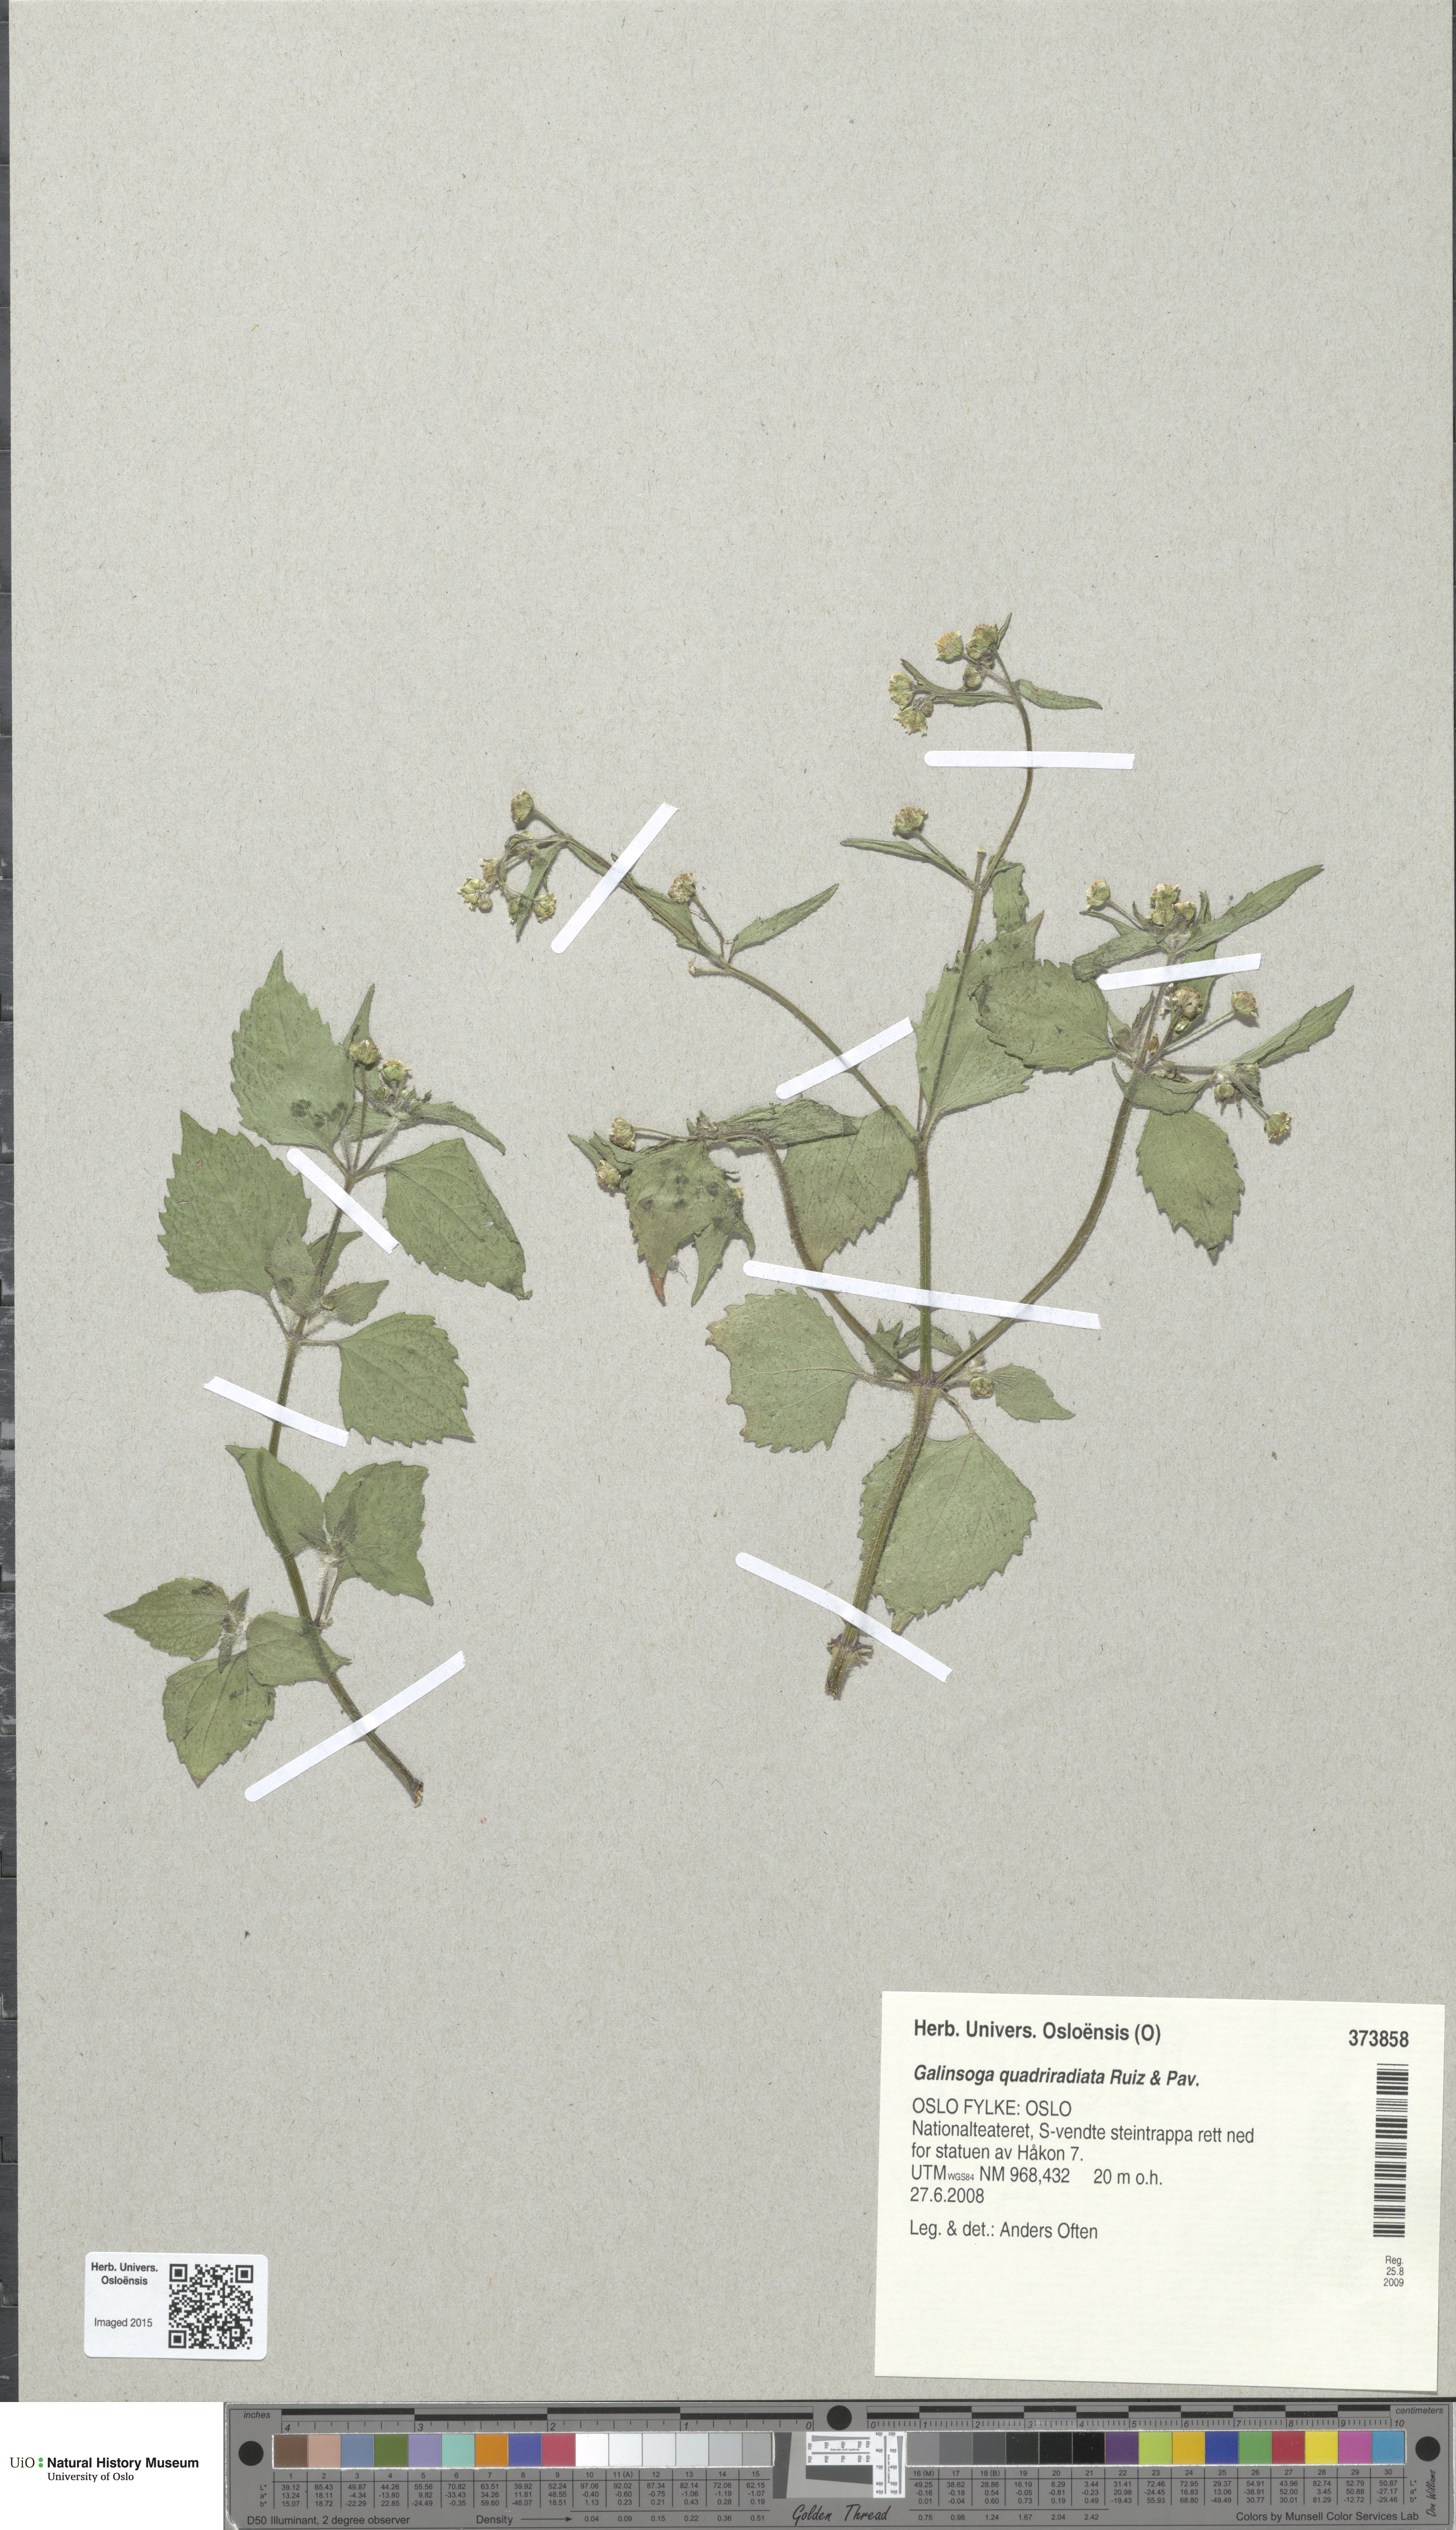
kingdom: Plantae
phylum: Tracheophyta
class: Magnoliopsida
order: Asterales
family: Asteraceae
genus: Galinsoga
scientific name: Galinsoga quadriradiata
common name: Shaggy soldier
